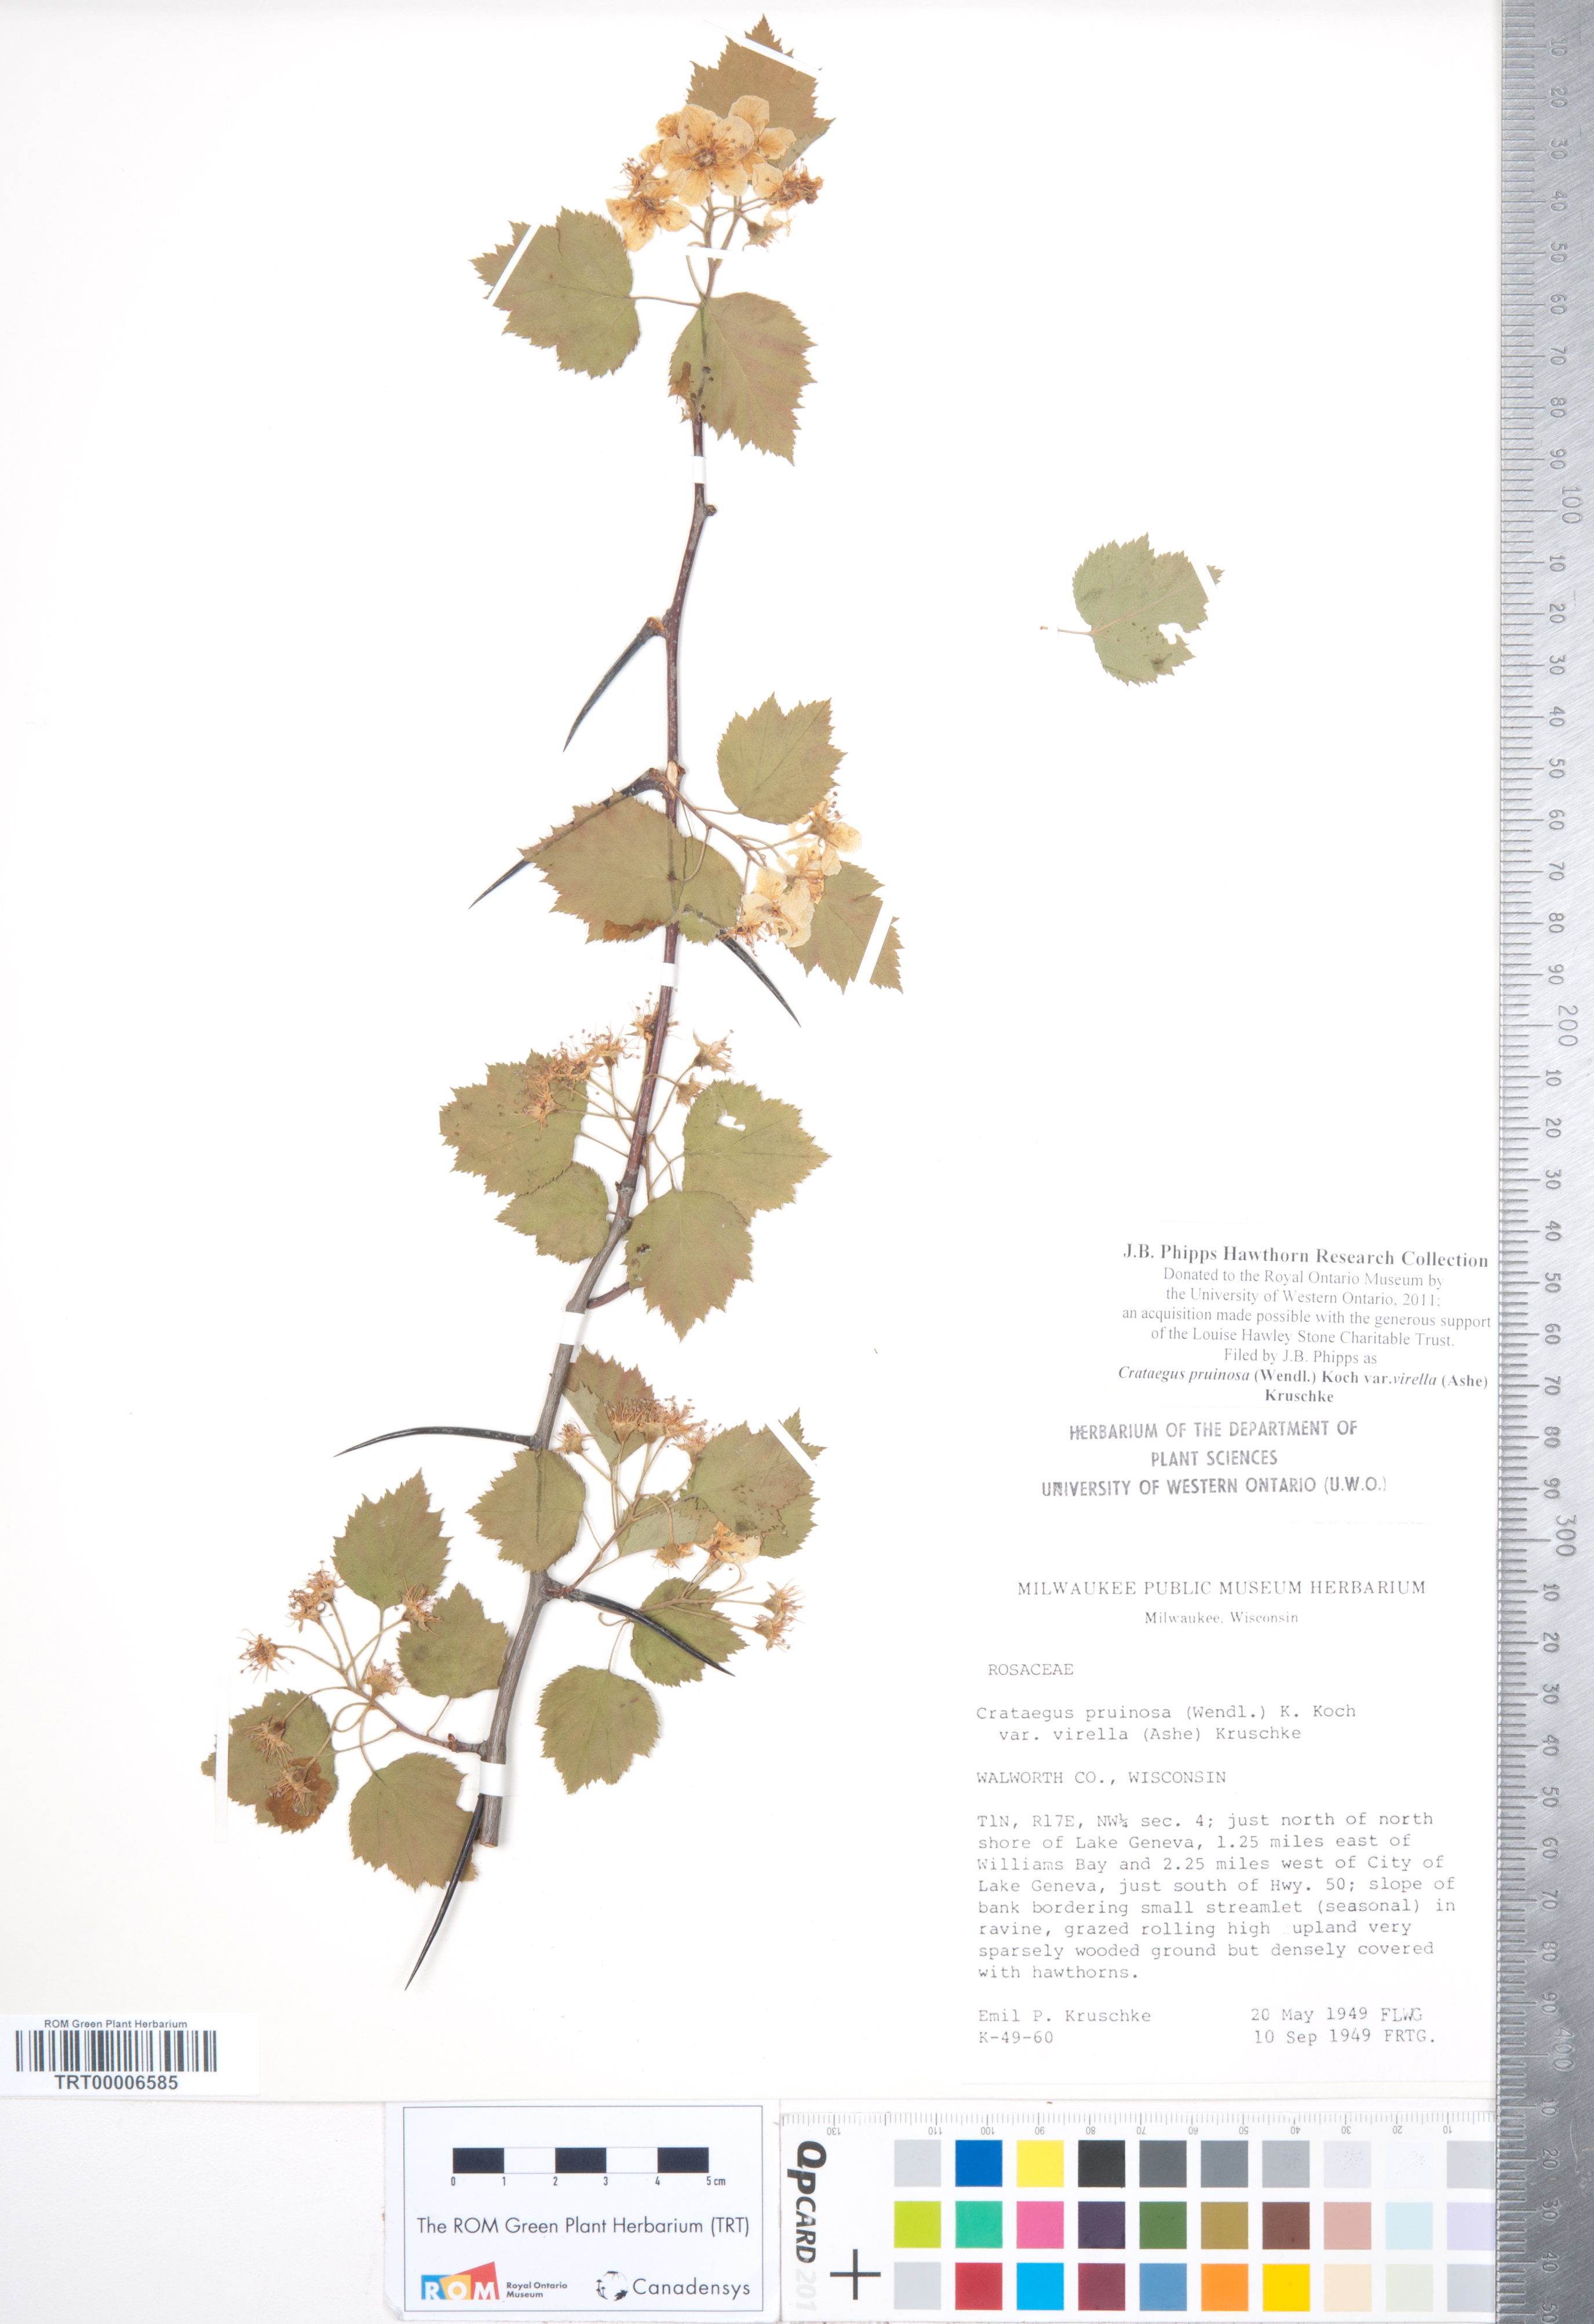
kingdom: Plantae
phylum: Tracheophyta
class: Magnoliopsida
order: Rosales
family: Rosaceae
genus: Crataegus
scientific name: Crataegus pruinosa
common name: Waxy-fruit hawthorn
